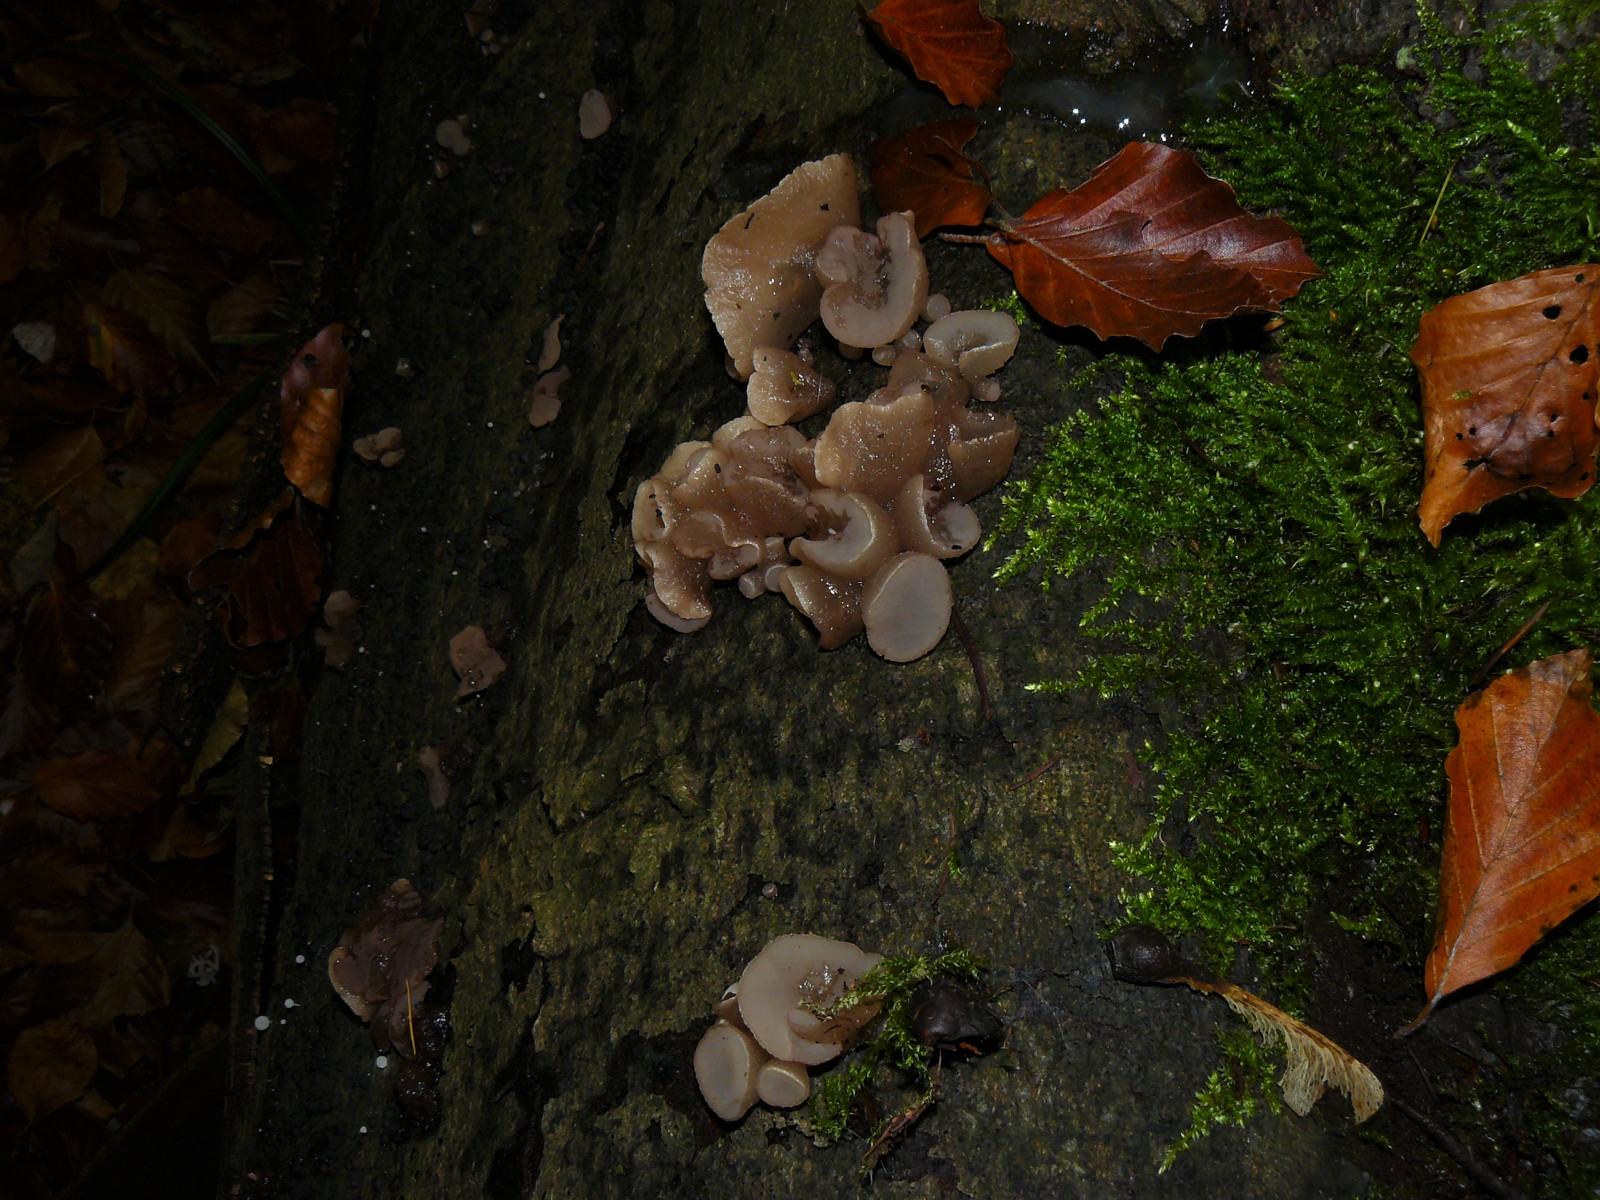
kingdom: Fungi
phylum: Ascomycota
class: Leotiomycetes
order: Helotiales
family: Gelatinodiscaceae
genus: Neobulgaria
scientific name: Neobulgaria pura
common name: bleg bævreskive
